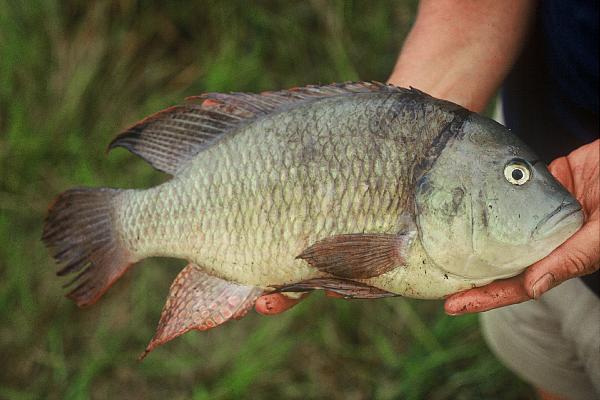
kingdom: Animalia
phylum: Chordata
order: Perciformes
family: Cichlidae
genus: Sargochromis
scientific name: Sargochromis giardi
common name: Pink happy
